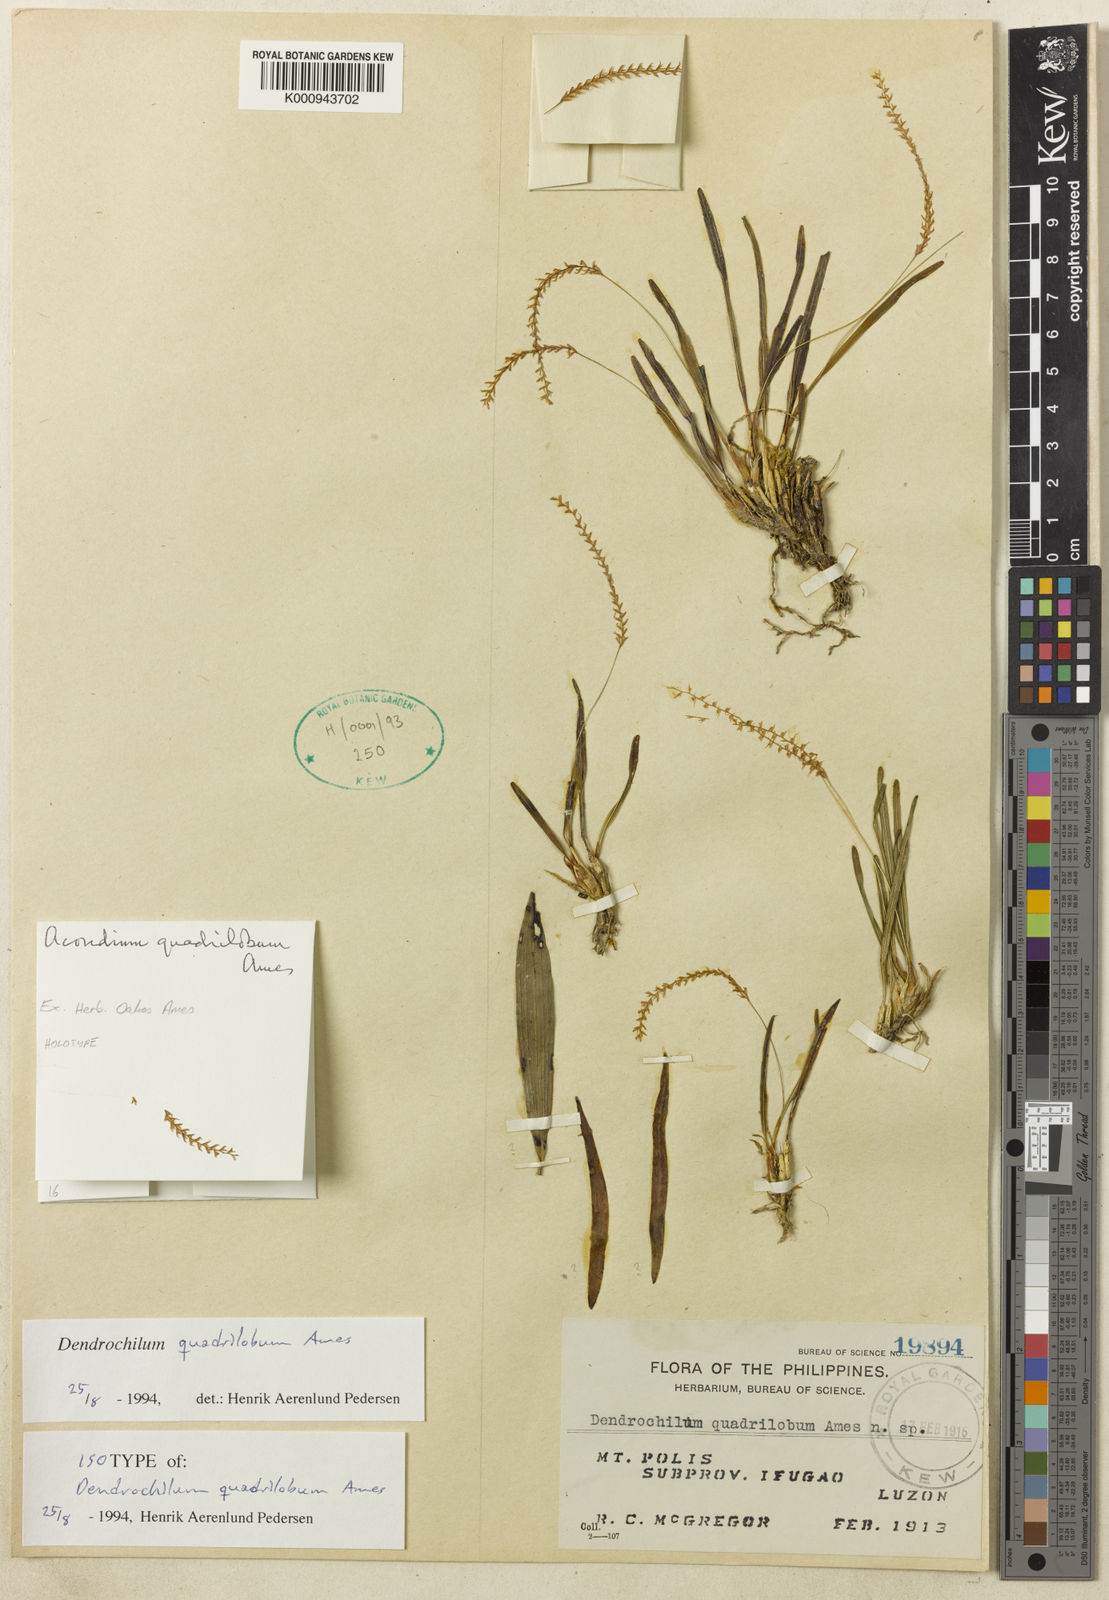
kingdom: Plantae
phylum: Tracheophyta
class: Liliopsida
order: Asparagales
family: Orchidaceae
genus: Coelogyne
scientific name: Coelogyne quadriloba
